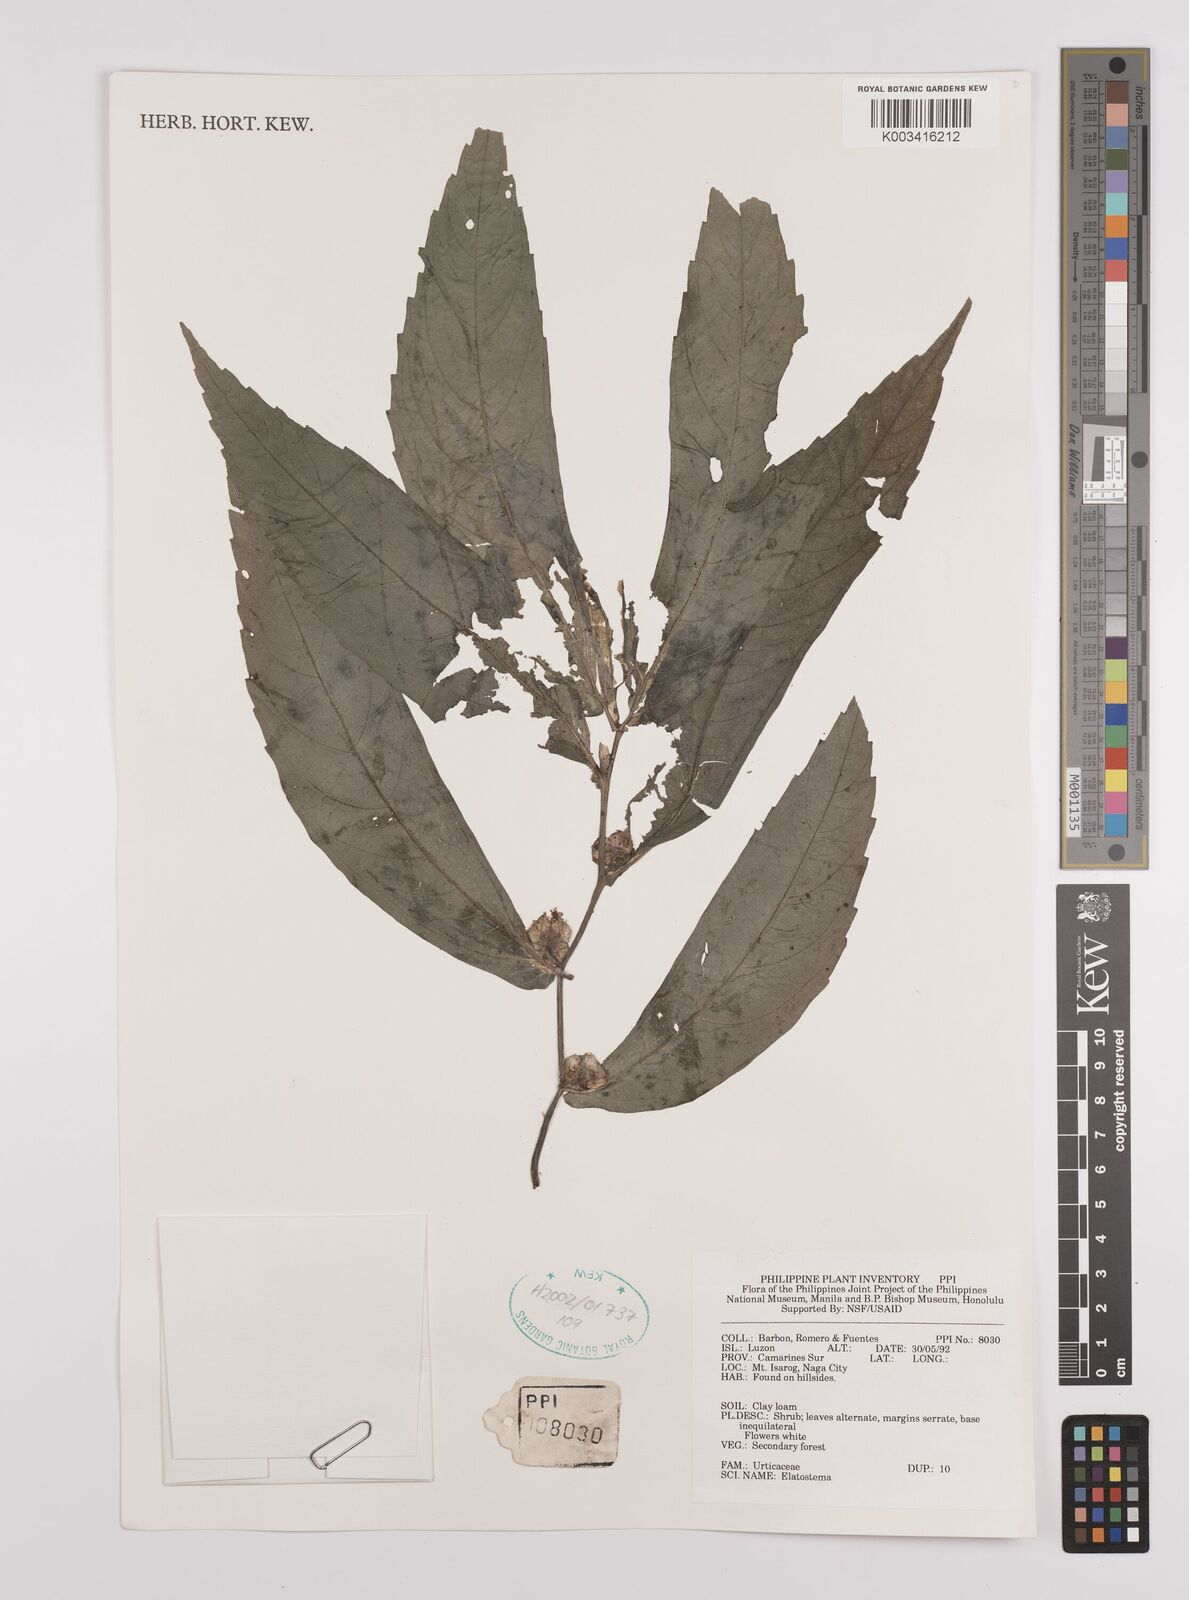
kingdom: Plantae
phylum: Tracheophyta
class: Magnoliopsida
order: Rosales
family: Urticaceae
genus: Elatostema
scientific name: Elatostema
